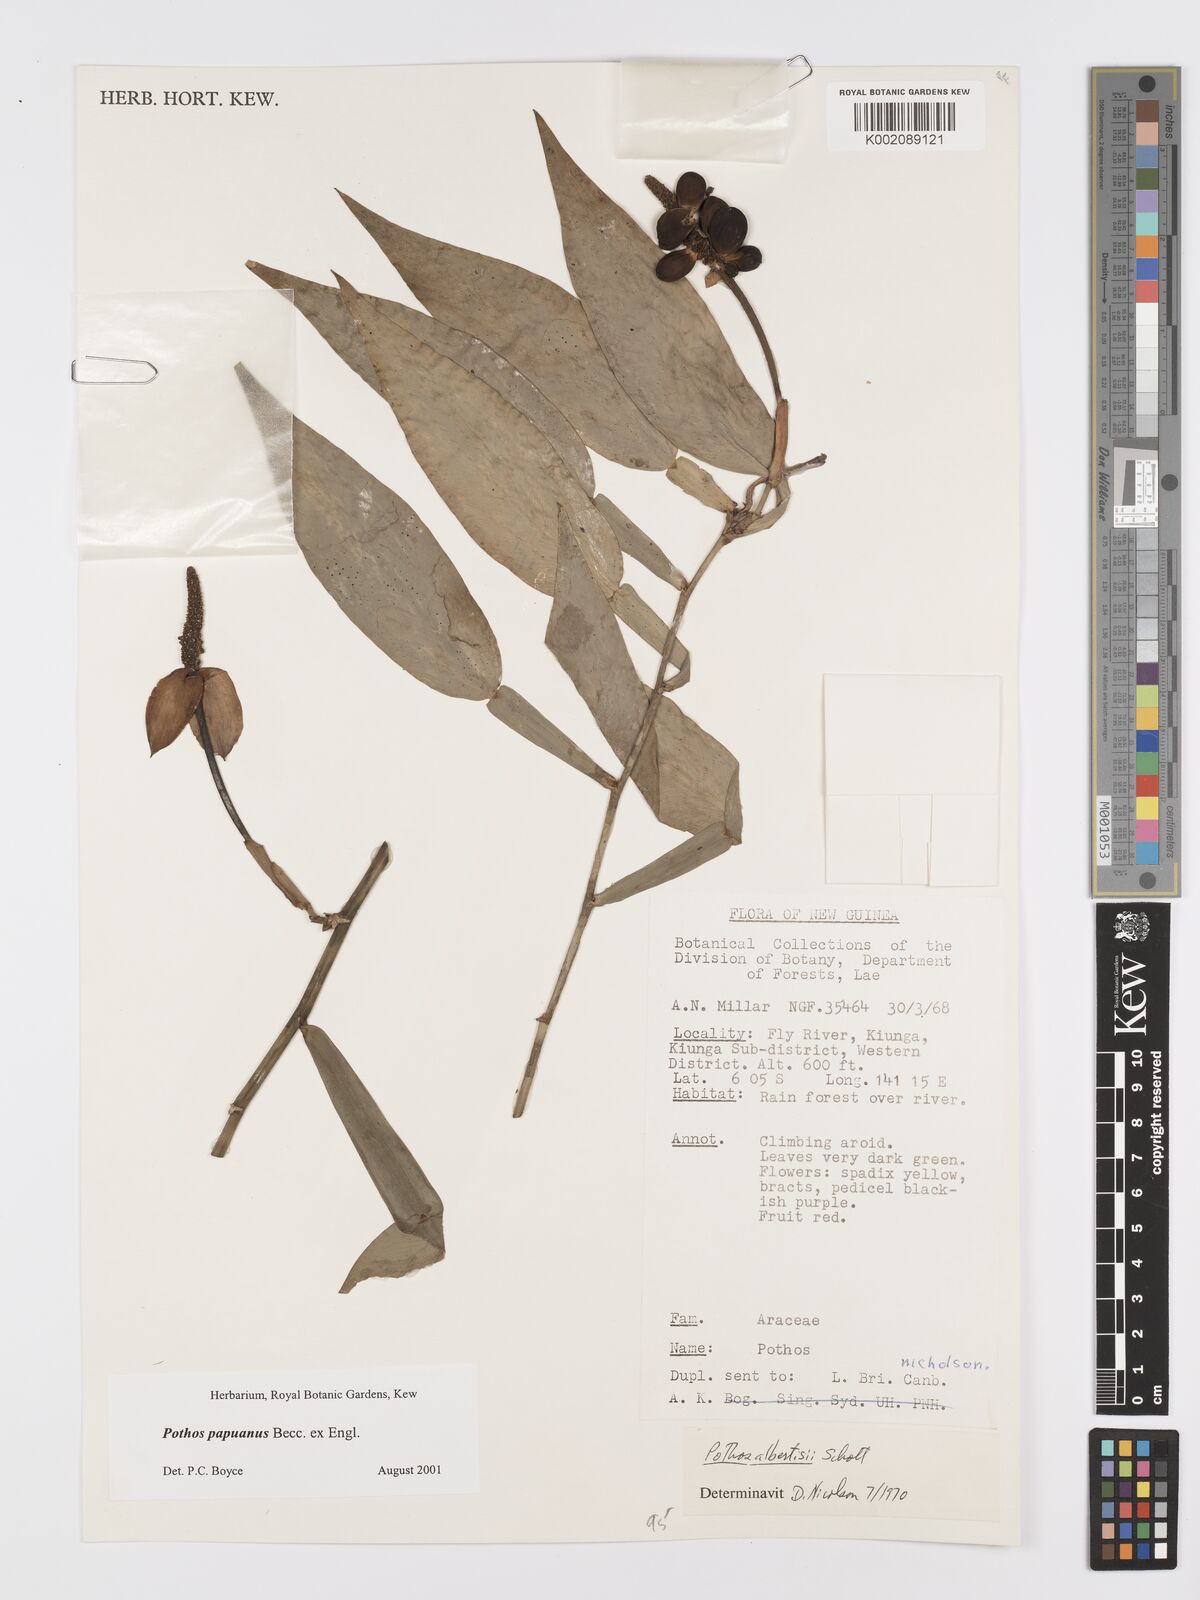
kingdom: Plantae
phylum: Tracheophyta
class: Liliopsida
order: Alismatales
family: Araceae
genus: Pothos
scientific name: Pothos papuanus
